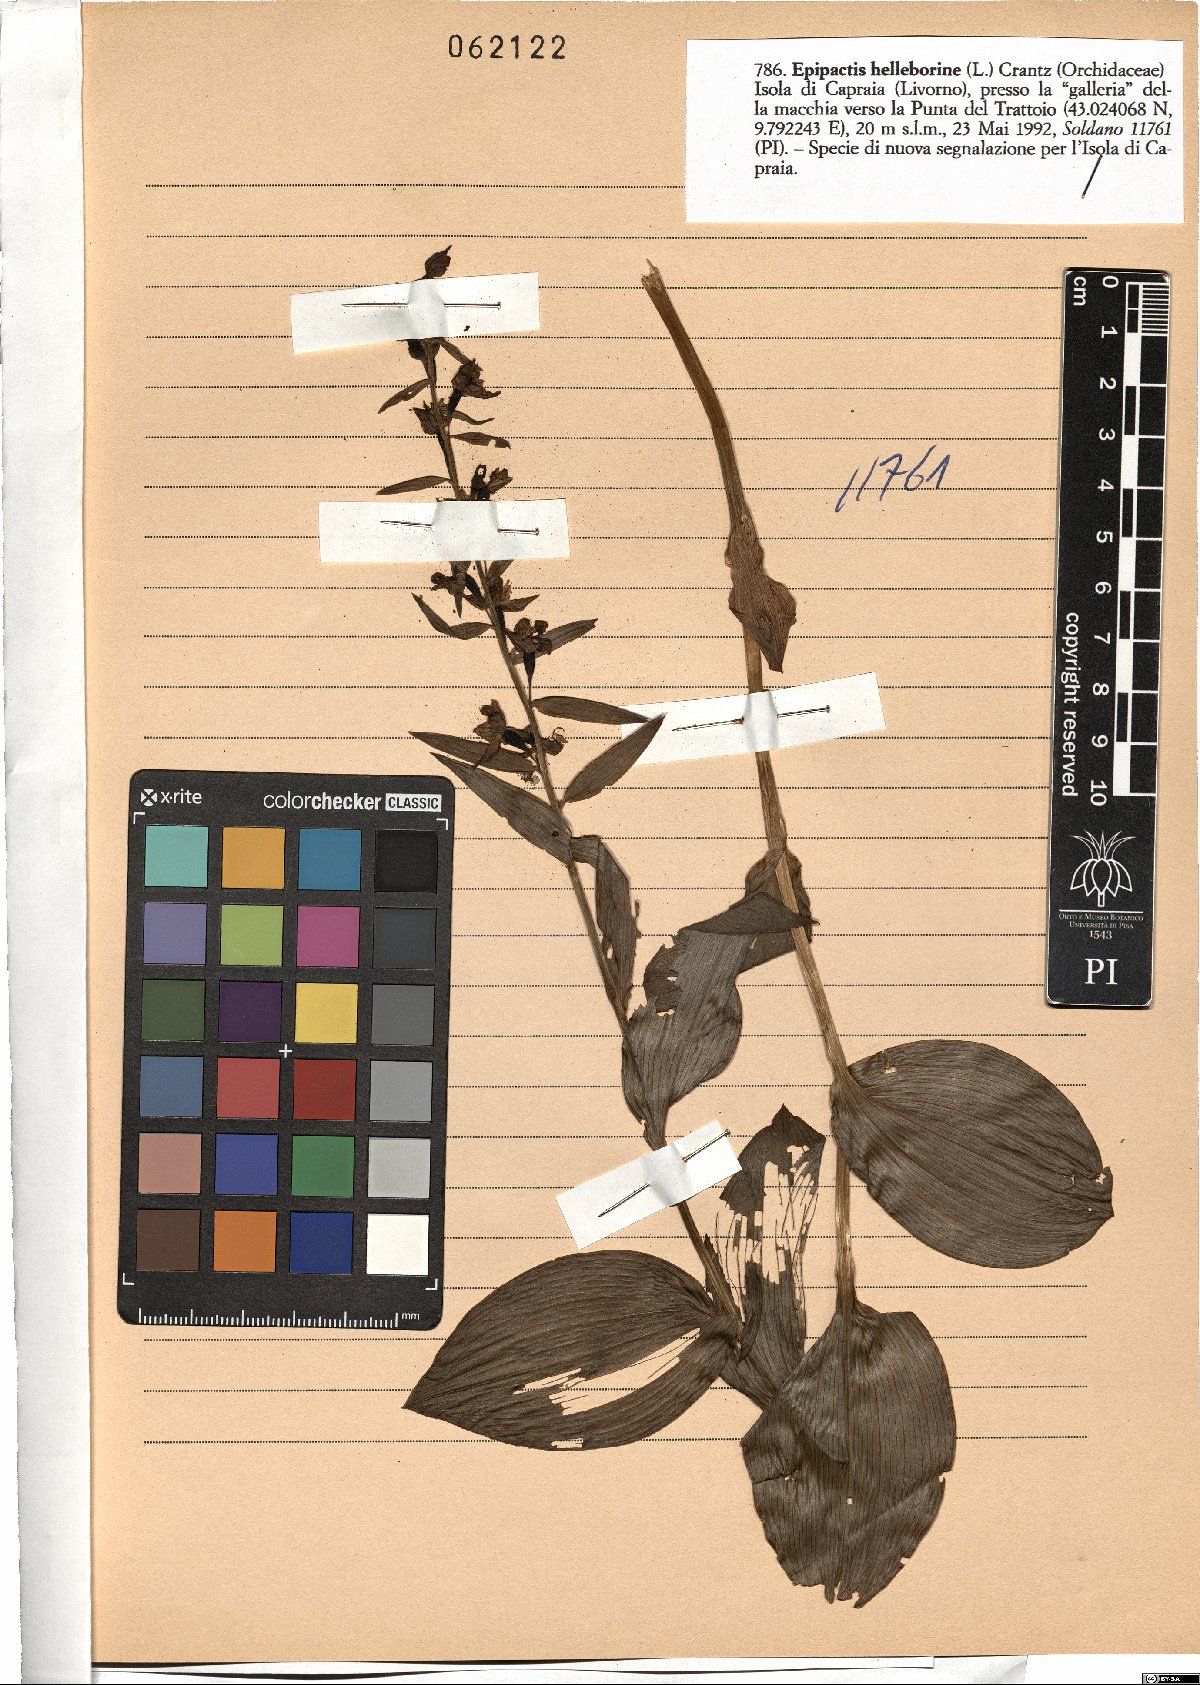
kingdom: Plantae
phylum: Tracheophyta
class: Liliopsida
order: Asparagales
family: Orchidaceae
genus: Epipactis
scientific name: Epipactis helleborine
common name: Broad-leaved helleborine
